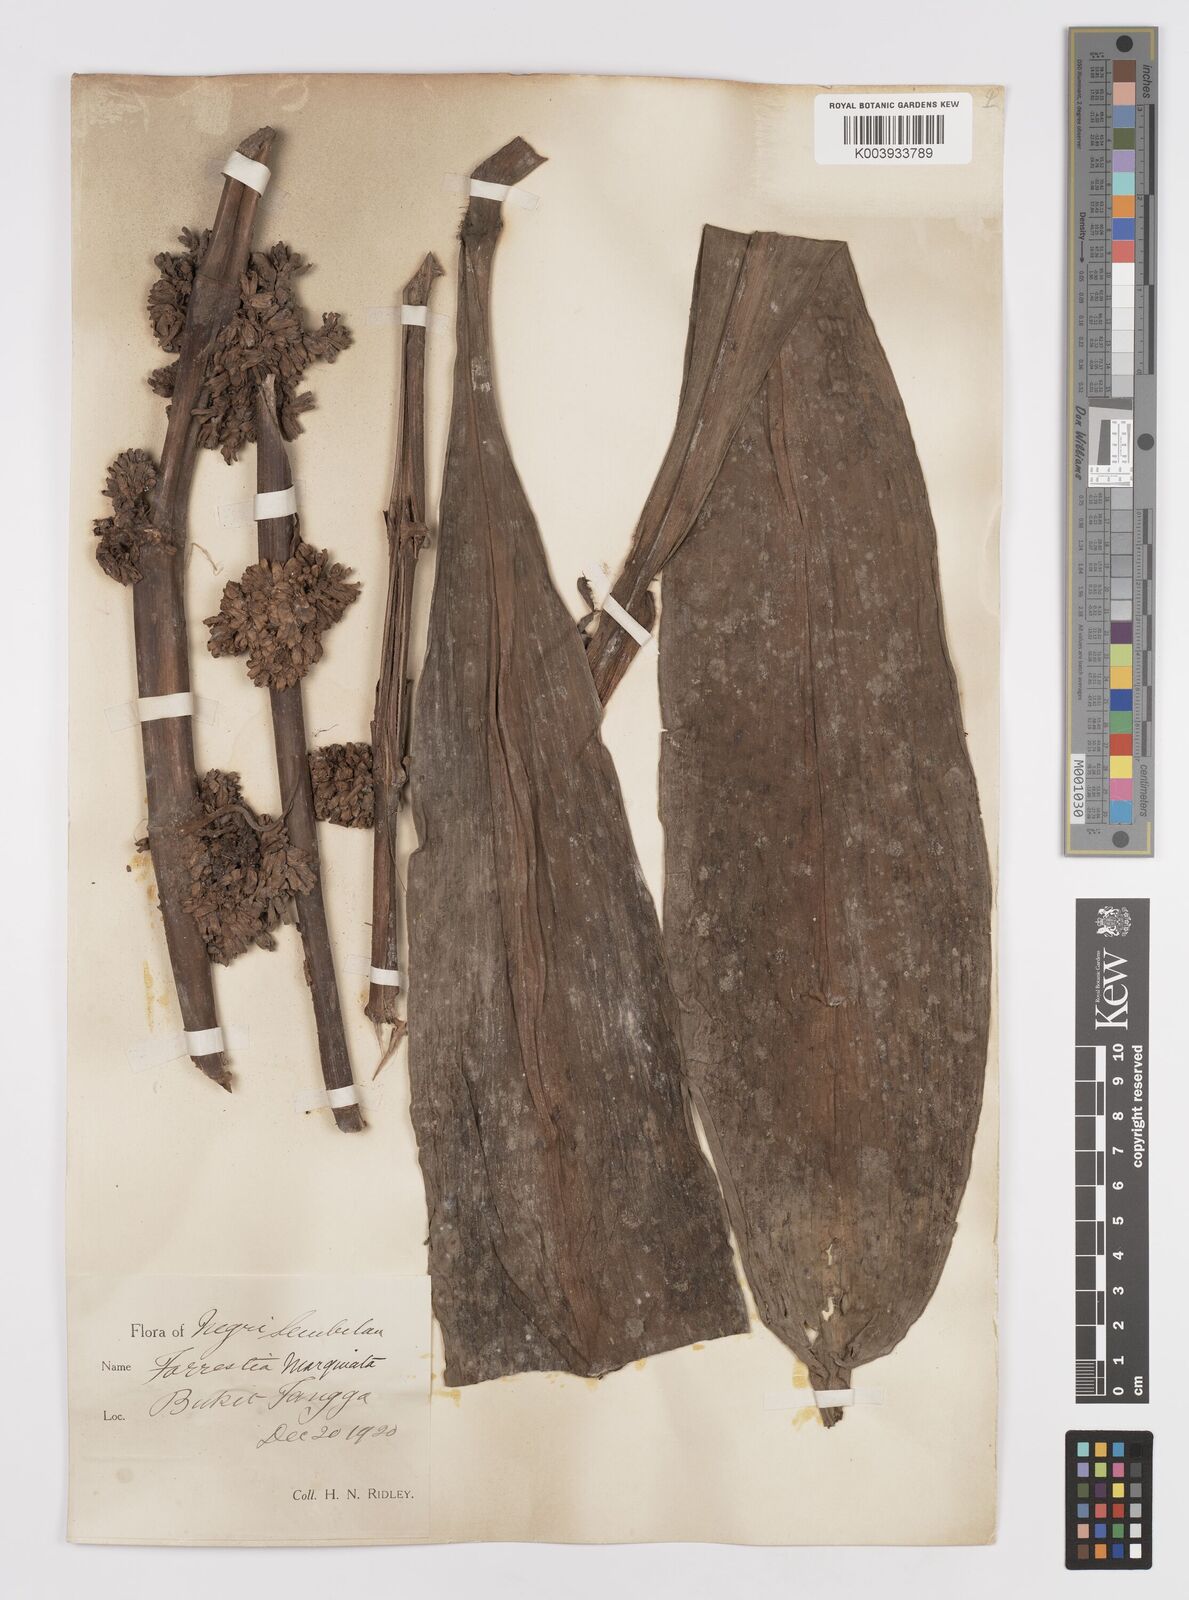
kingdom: Plantae
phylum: Tracheophyta
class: Liliopsida
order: Commelinales
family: Commelinaceae
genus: Amischotolype
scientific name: Amischotolype marginata
